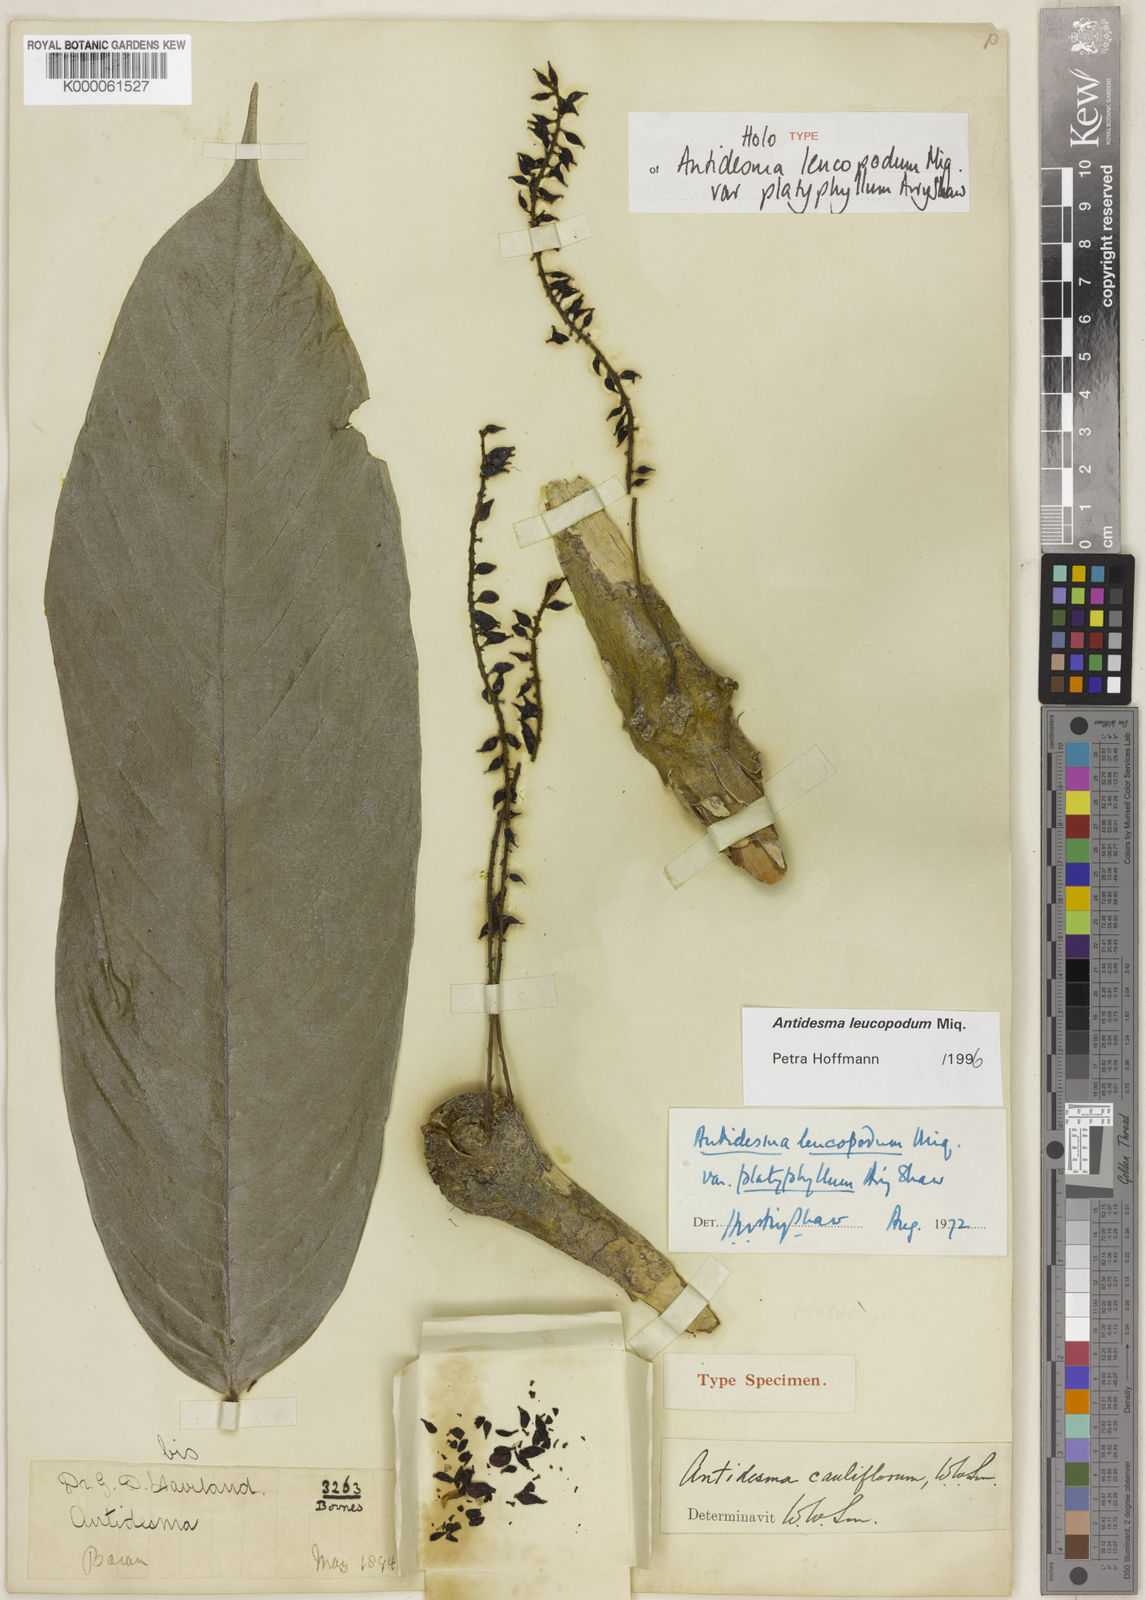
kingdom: Plantae
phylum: Tracheophyta
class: Magnoliopsida
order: Malpighiales
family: Phyllanthaceae
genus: Antidesma
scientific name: Antidesma leucopodum
